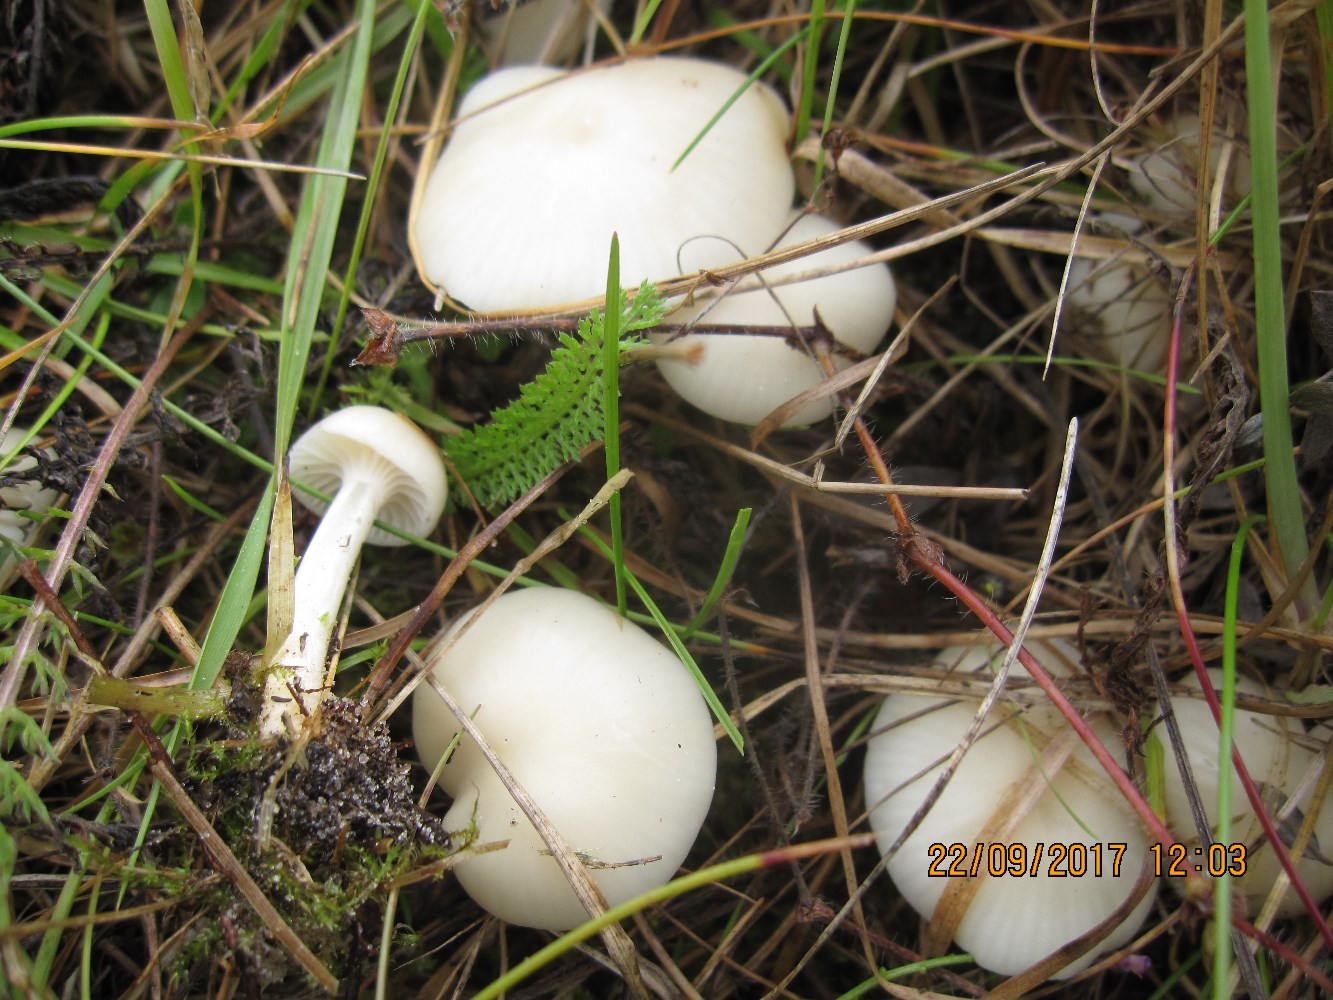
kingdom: Fungi
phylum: Basidiomycota
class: Agaricomycetes
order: Agaricales
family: Hygrophoraceae
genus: Cuphophyllus
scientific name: Cuphophyllus virgineus
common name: snehvid vokshat
